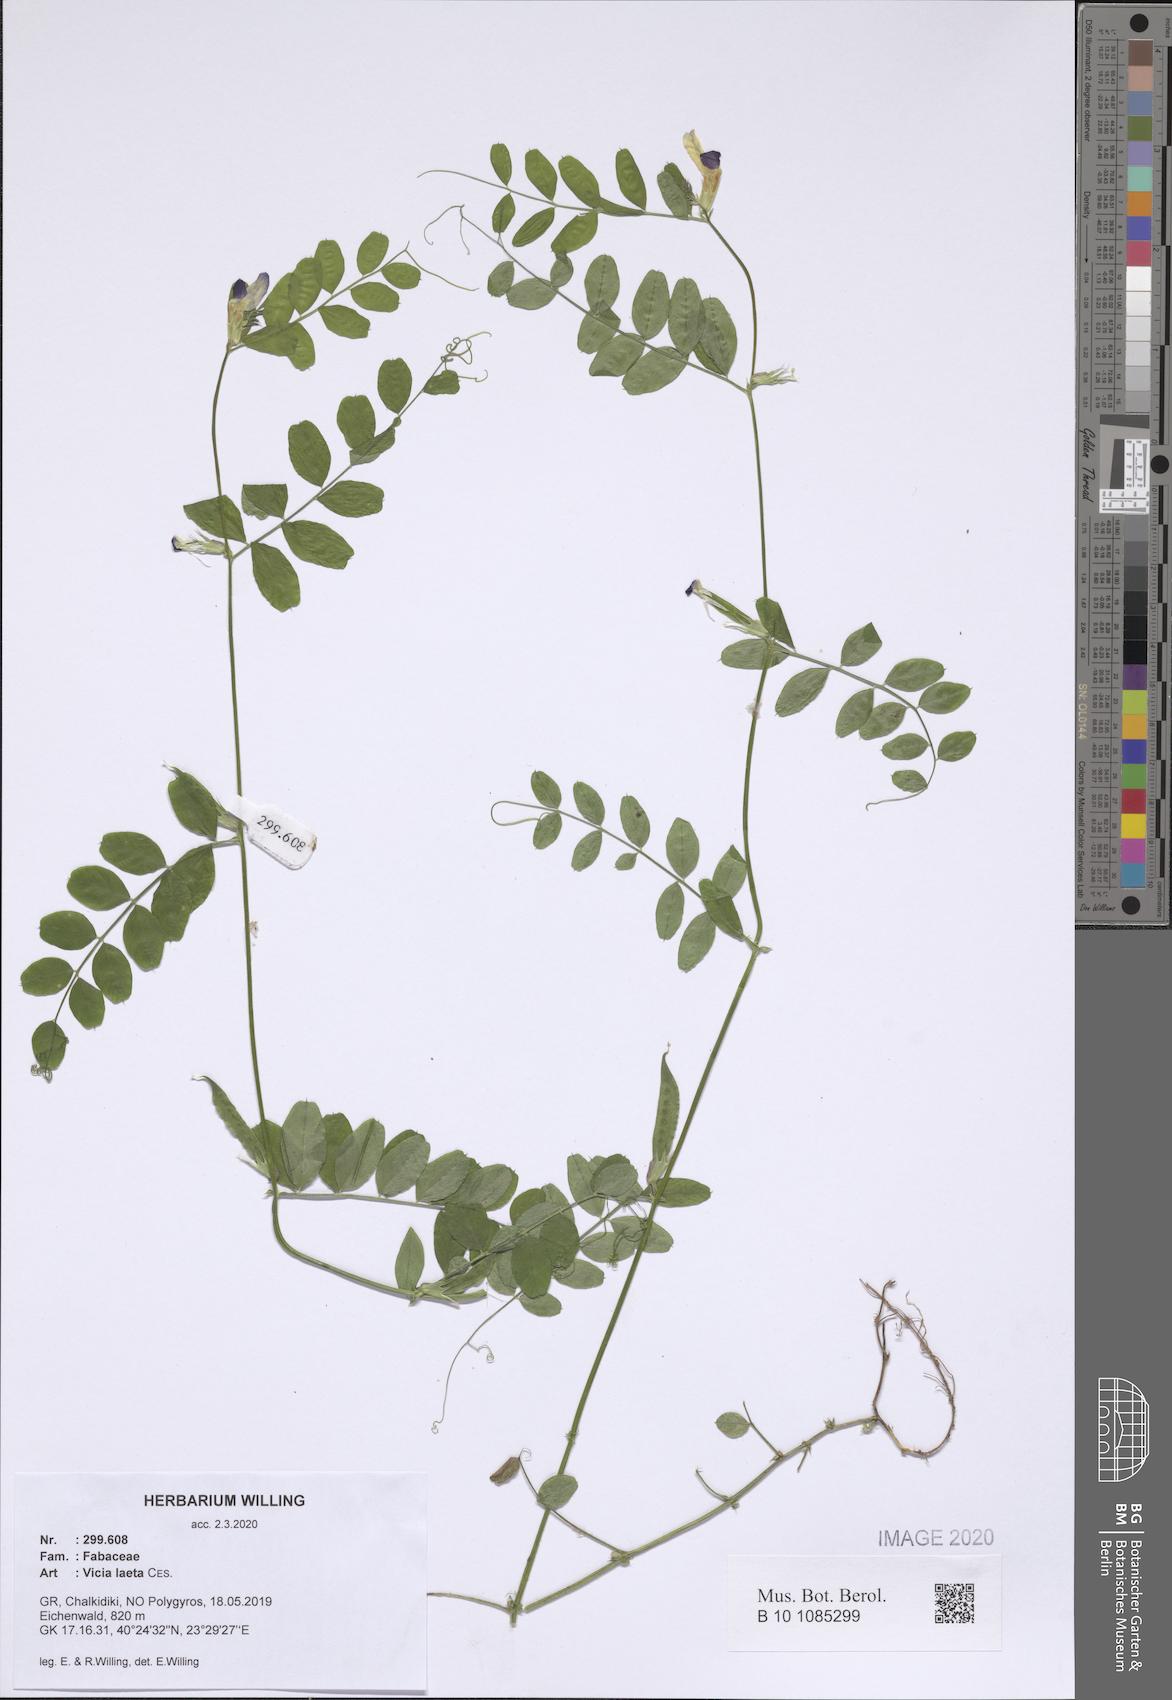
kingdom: Plantae
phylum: Tracheophyta
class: Magnoliopsida
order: Fabales
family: Fabaceae
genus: Vicia
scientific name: Vicia laeta
